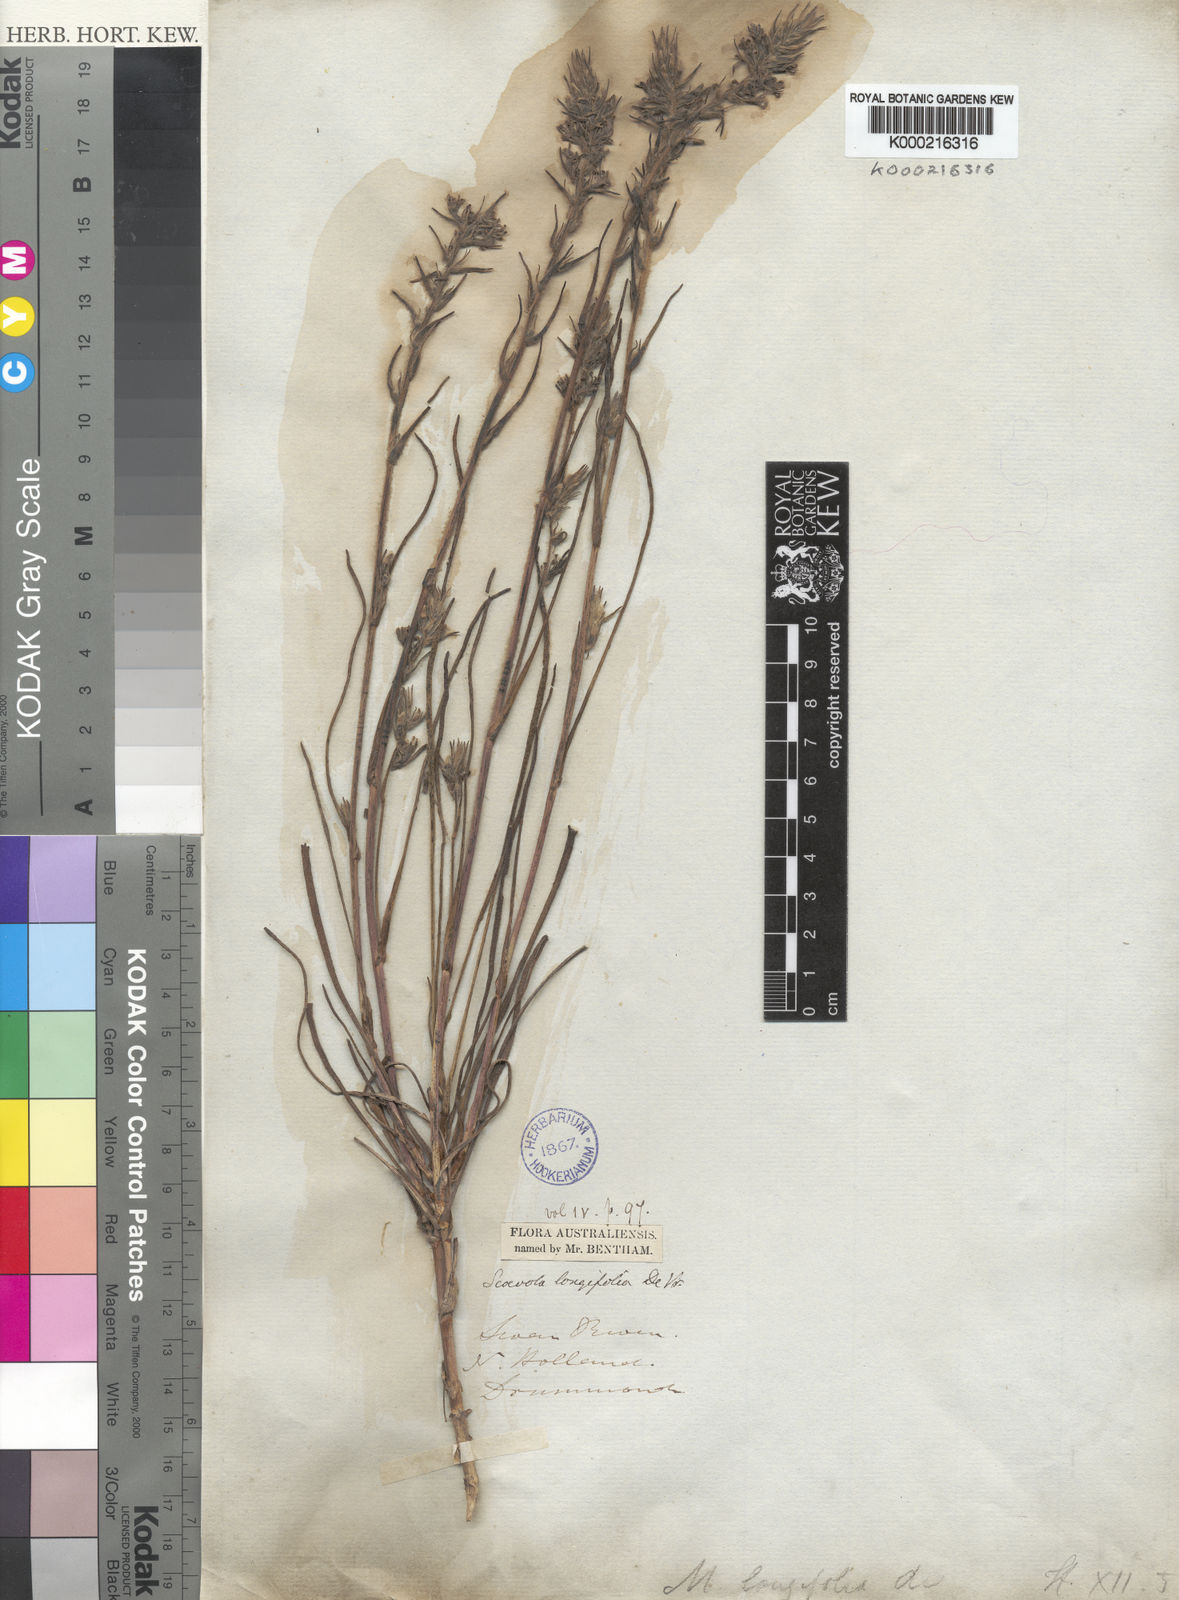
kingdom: Plantae
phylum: Tracheophyta
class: Magnoliopsida
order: Asterales
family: Goodeniaceae
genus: Scaevola
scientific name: Scaevola lanceolata
